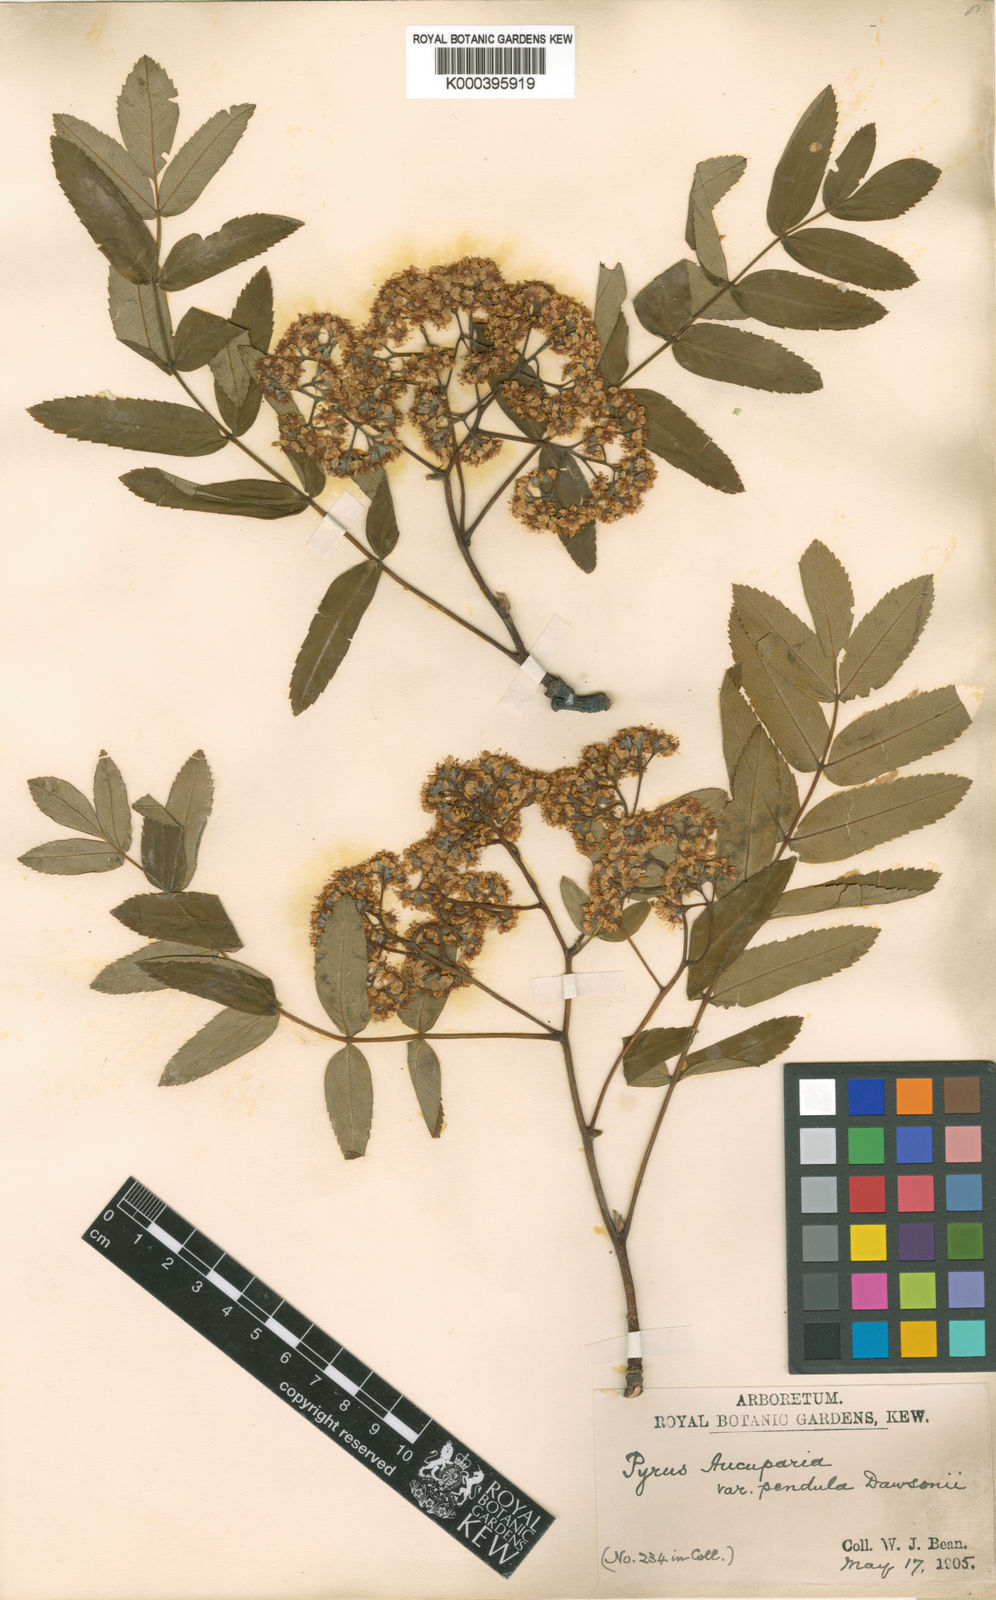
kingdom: Plantae
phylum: Tracheophyta
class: Magnoliopsida
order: Rosales
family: Rosaceae
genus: Sorbus
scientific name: Sorbus aucuparia
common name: Rowan
